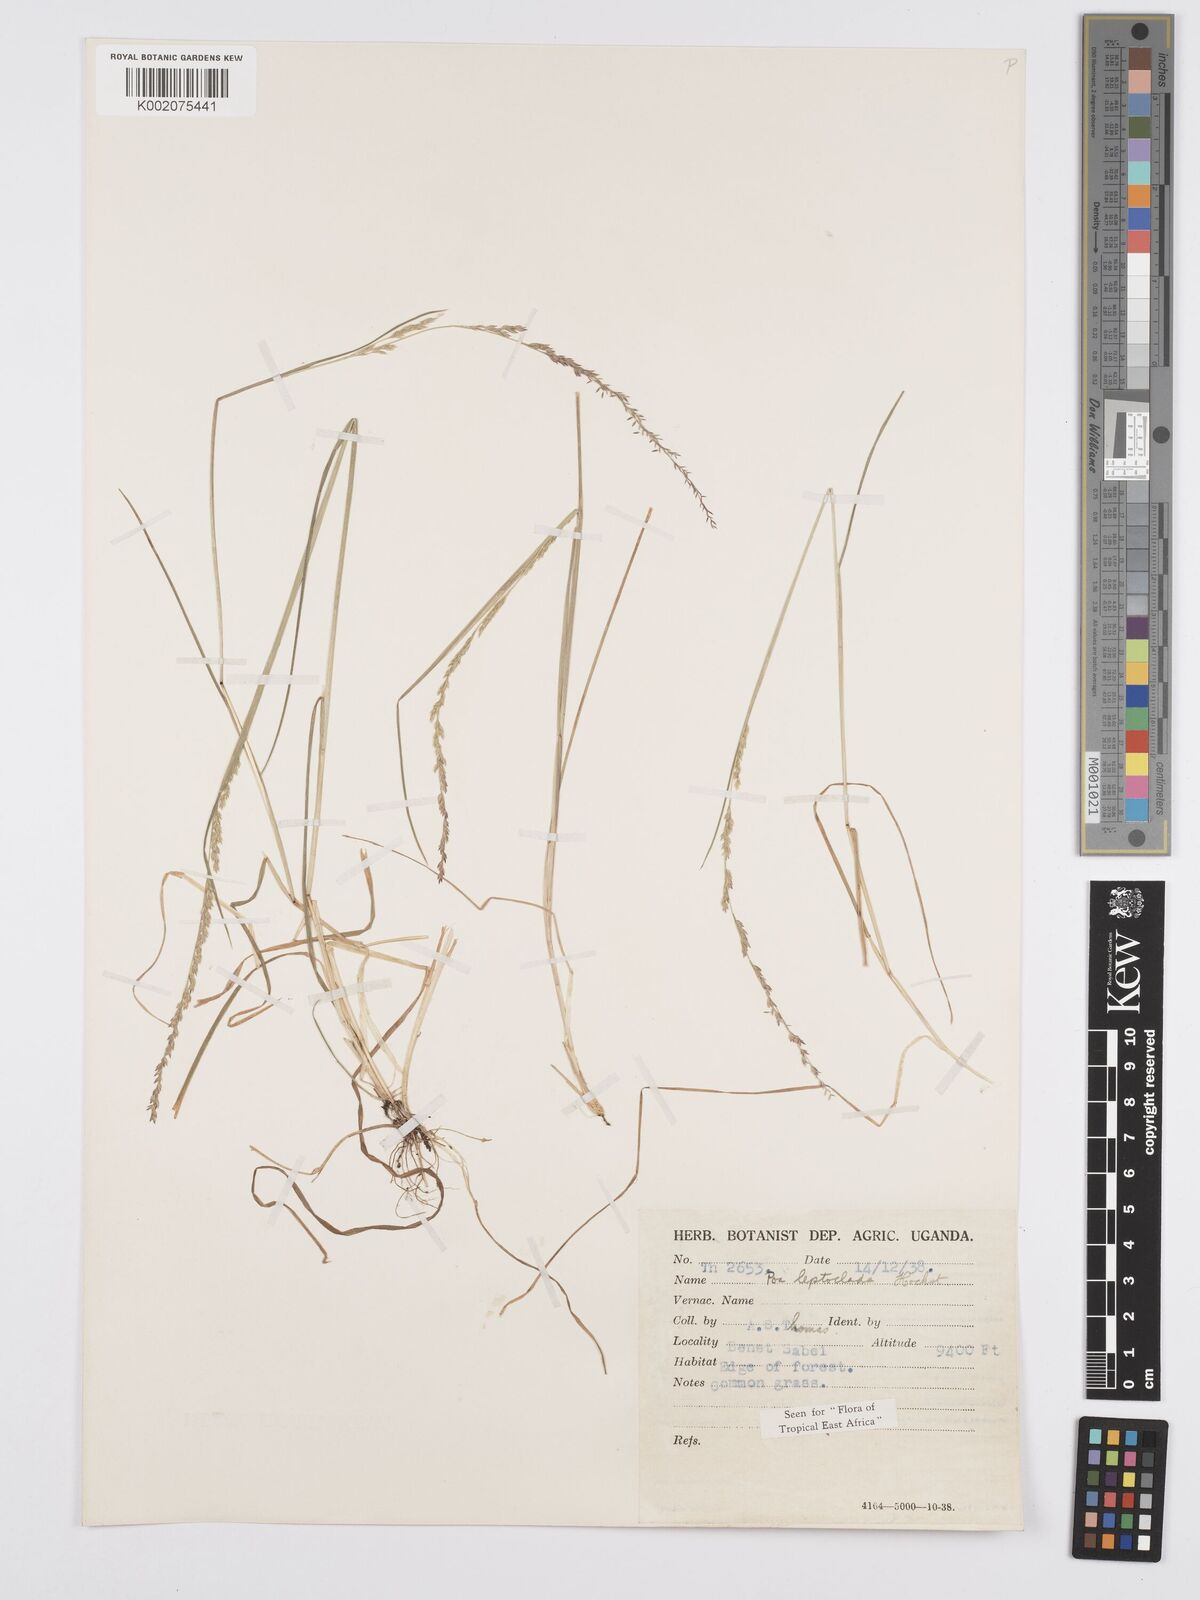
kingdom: Plantae
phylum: Tracheophyta
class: Liliopsida
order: Poales
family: Poaceae
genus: Poa
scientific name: Poa
